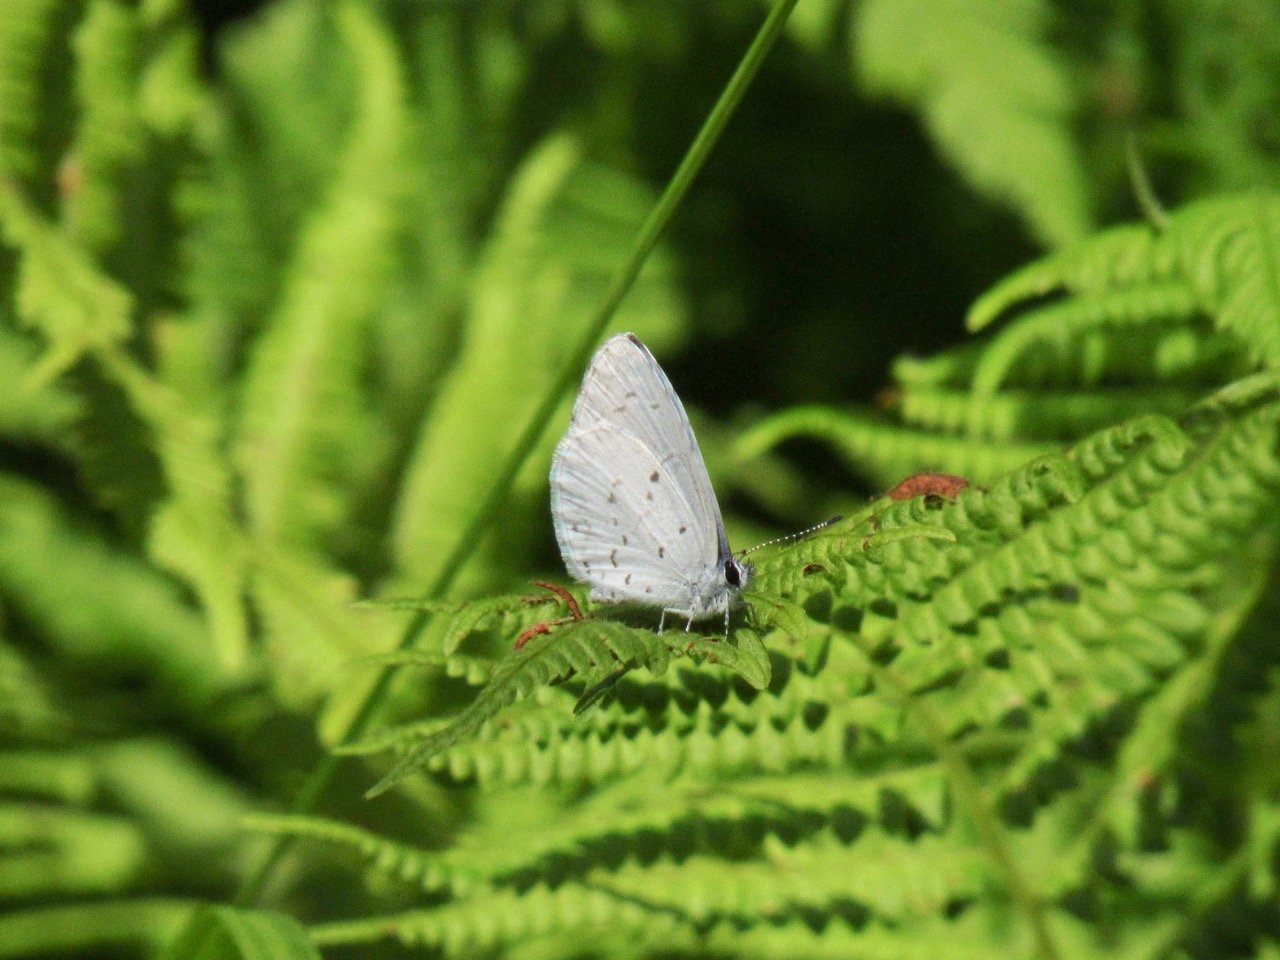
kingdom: Animalia
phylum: Arthropoda
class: Insecta
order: Lepidoptera
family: Lycaenidae
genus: Celastrina
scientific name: Celastrina
